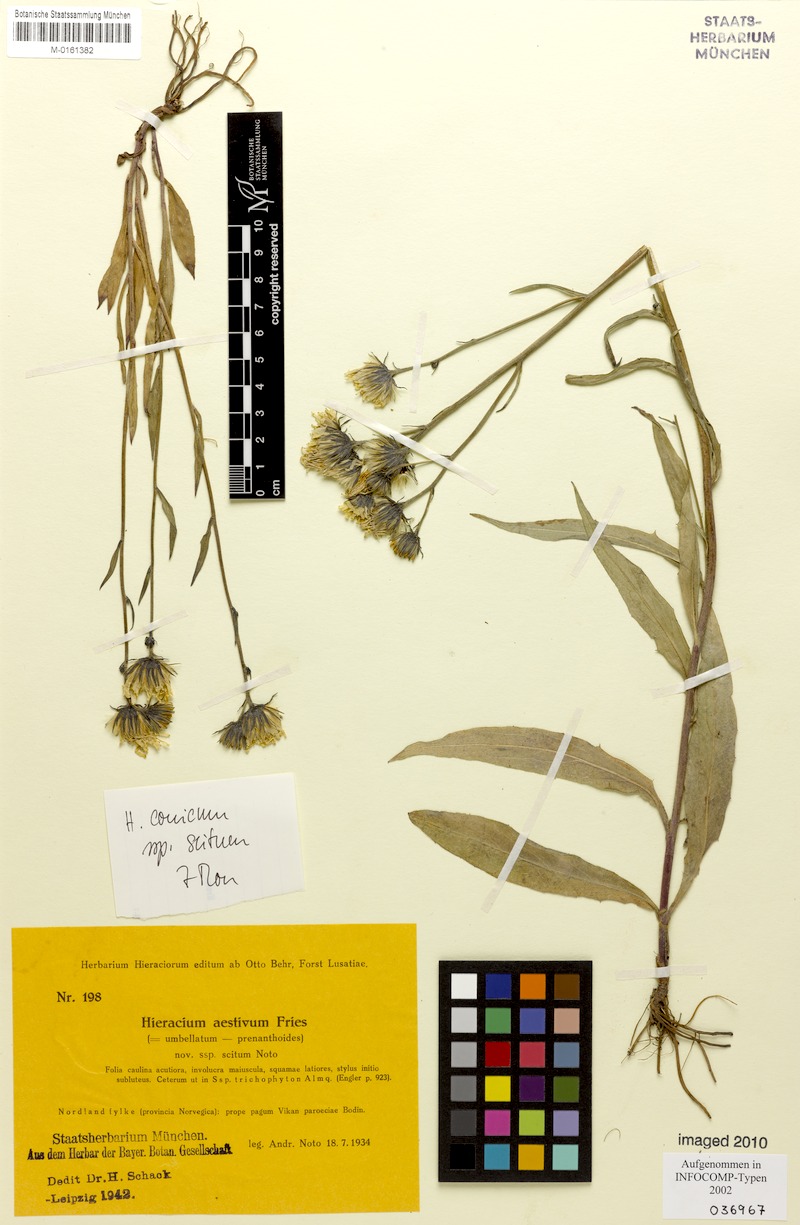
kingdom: Plantae
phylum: Tracheophyta
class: Magnoliopsida
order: Asterales
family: Asteraceae
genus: Hieracium
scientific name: Hieracium conicum
